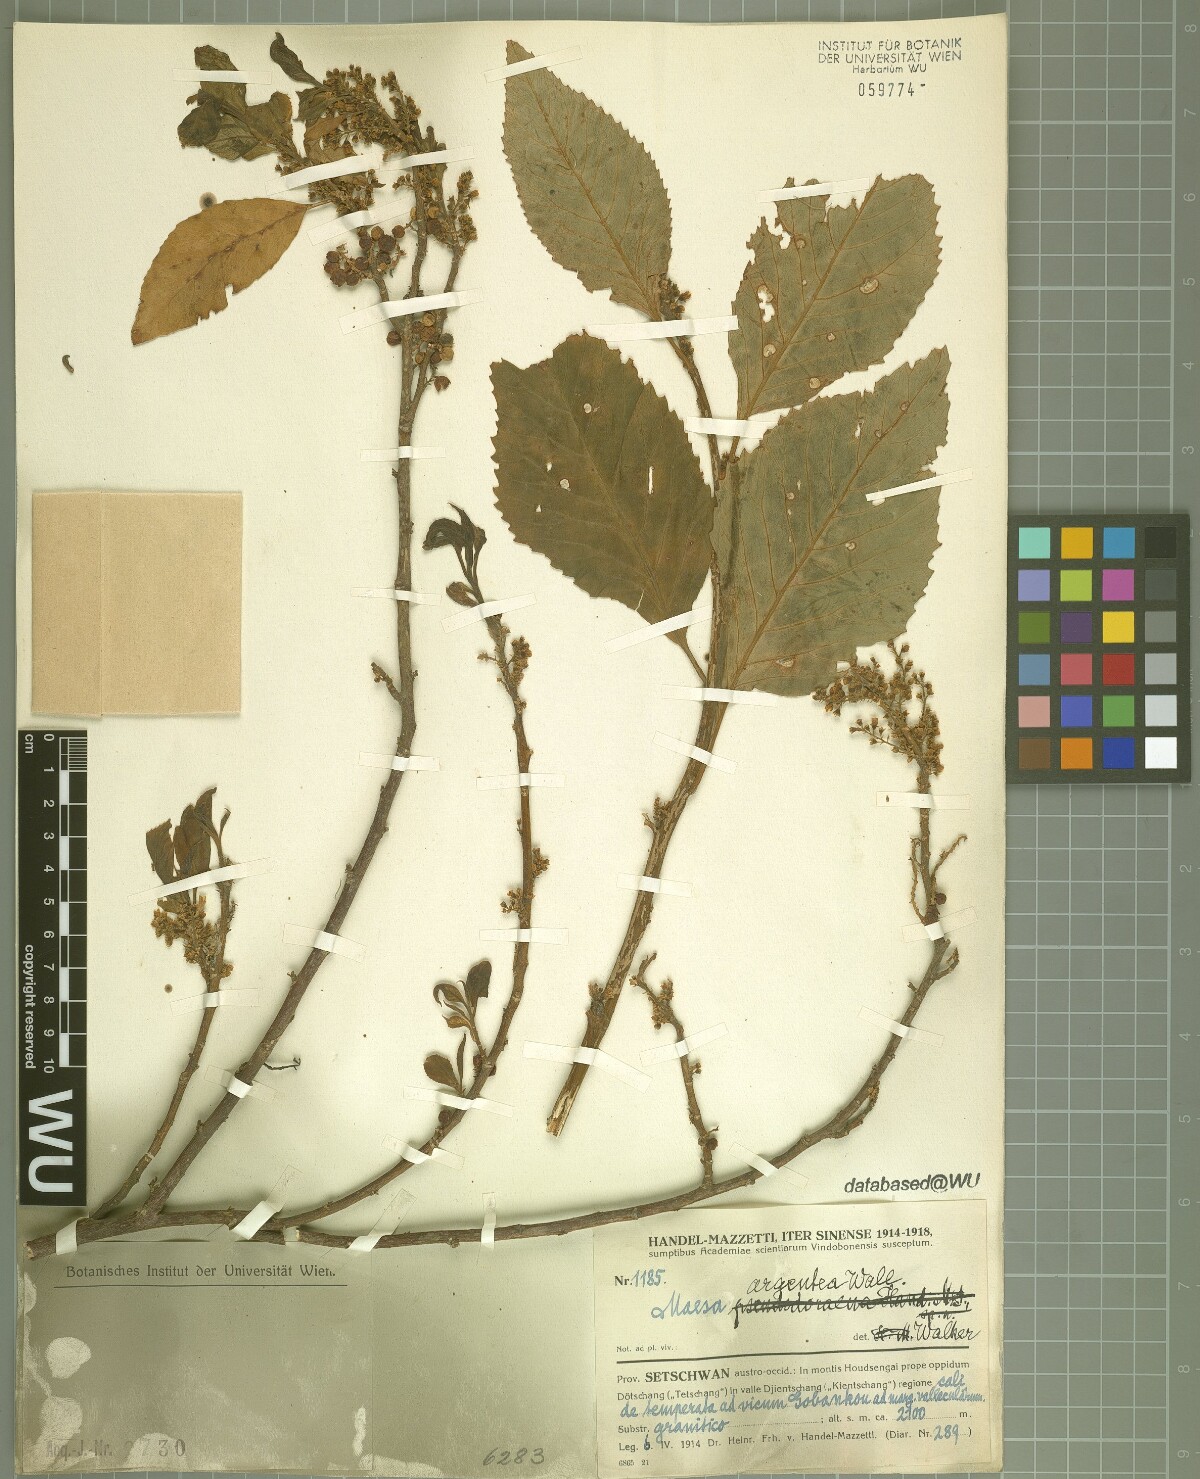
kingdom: Plantae
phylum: Tracheophyta
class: Magnoliopsida
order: Ericales
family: Primulaceae
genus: Maesa
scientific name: Maesa argentea
